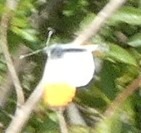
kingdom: Animalia
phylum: Arthropoda
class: Insecta
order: Lepidoptera
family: Pieridae
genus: Anthocharis
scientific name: Anthocharis cardamines
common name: Aurora
